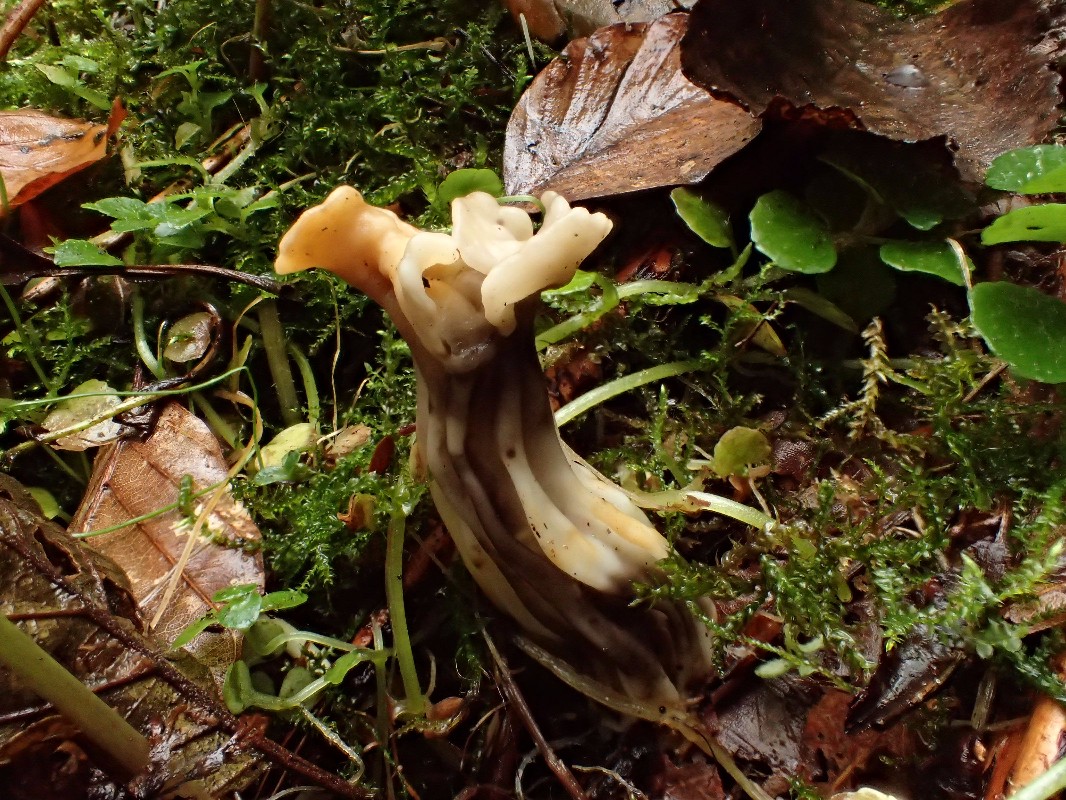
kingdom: Fungi
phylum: Ascomycota
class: Pezizomycetes
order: Pezizales
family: Helvellaceae
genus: Helvella
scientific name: Helvella
